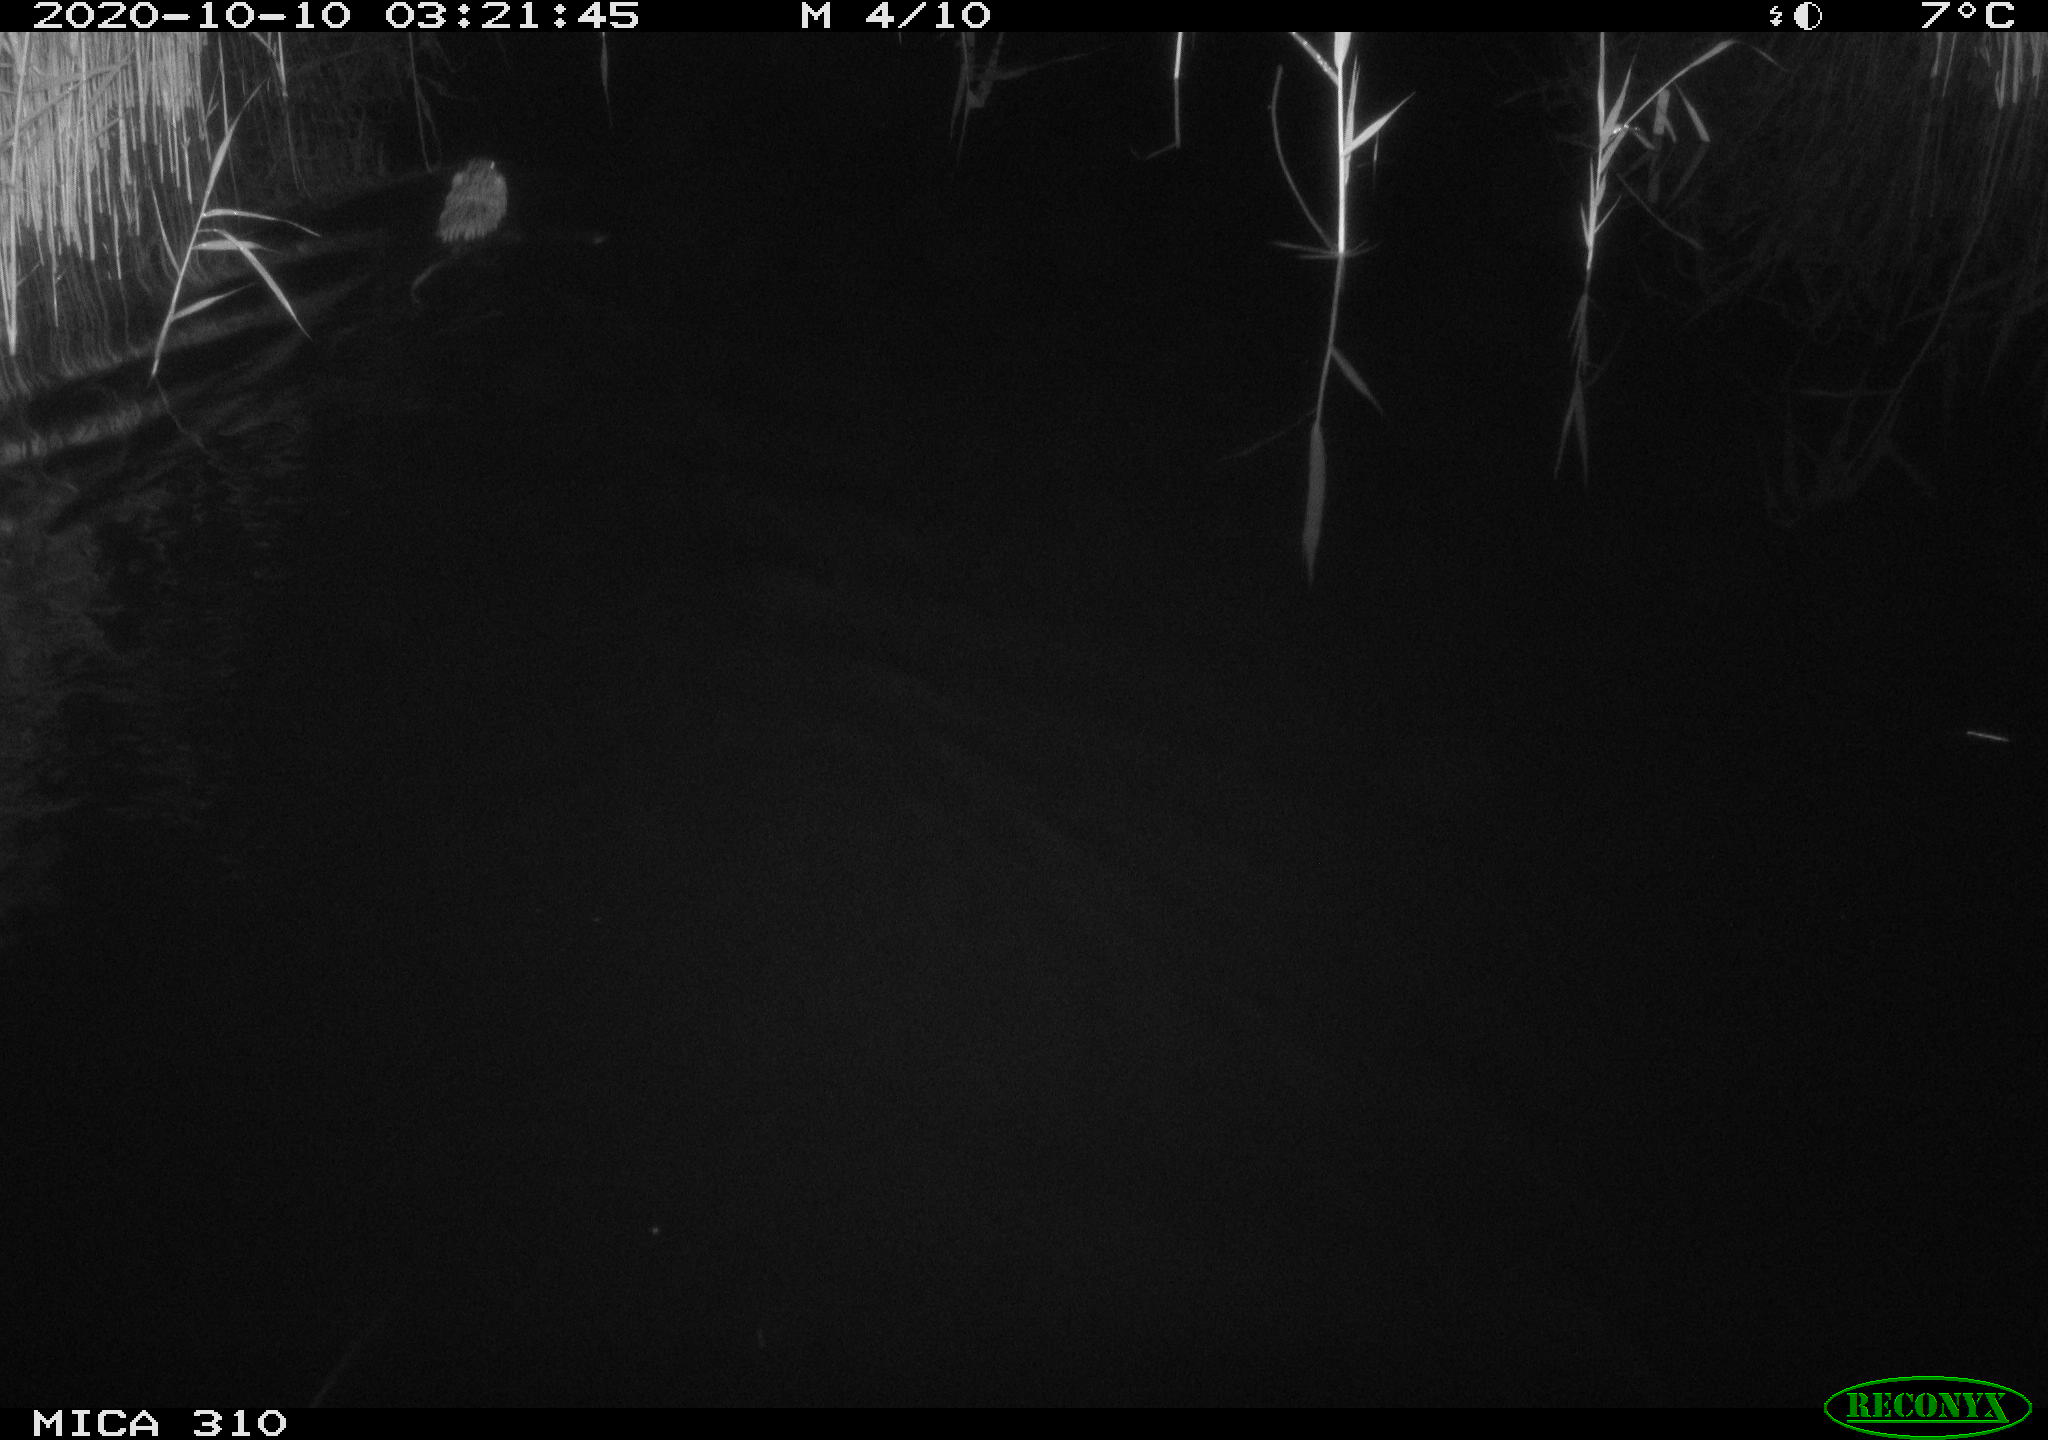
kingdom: Animalia
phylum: Chordata
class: Mammalia
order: Rodentia
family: Cricetidae
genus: Ondatra
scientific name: Ondatra zibethicus
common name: Muskrat
